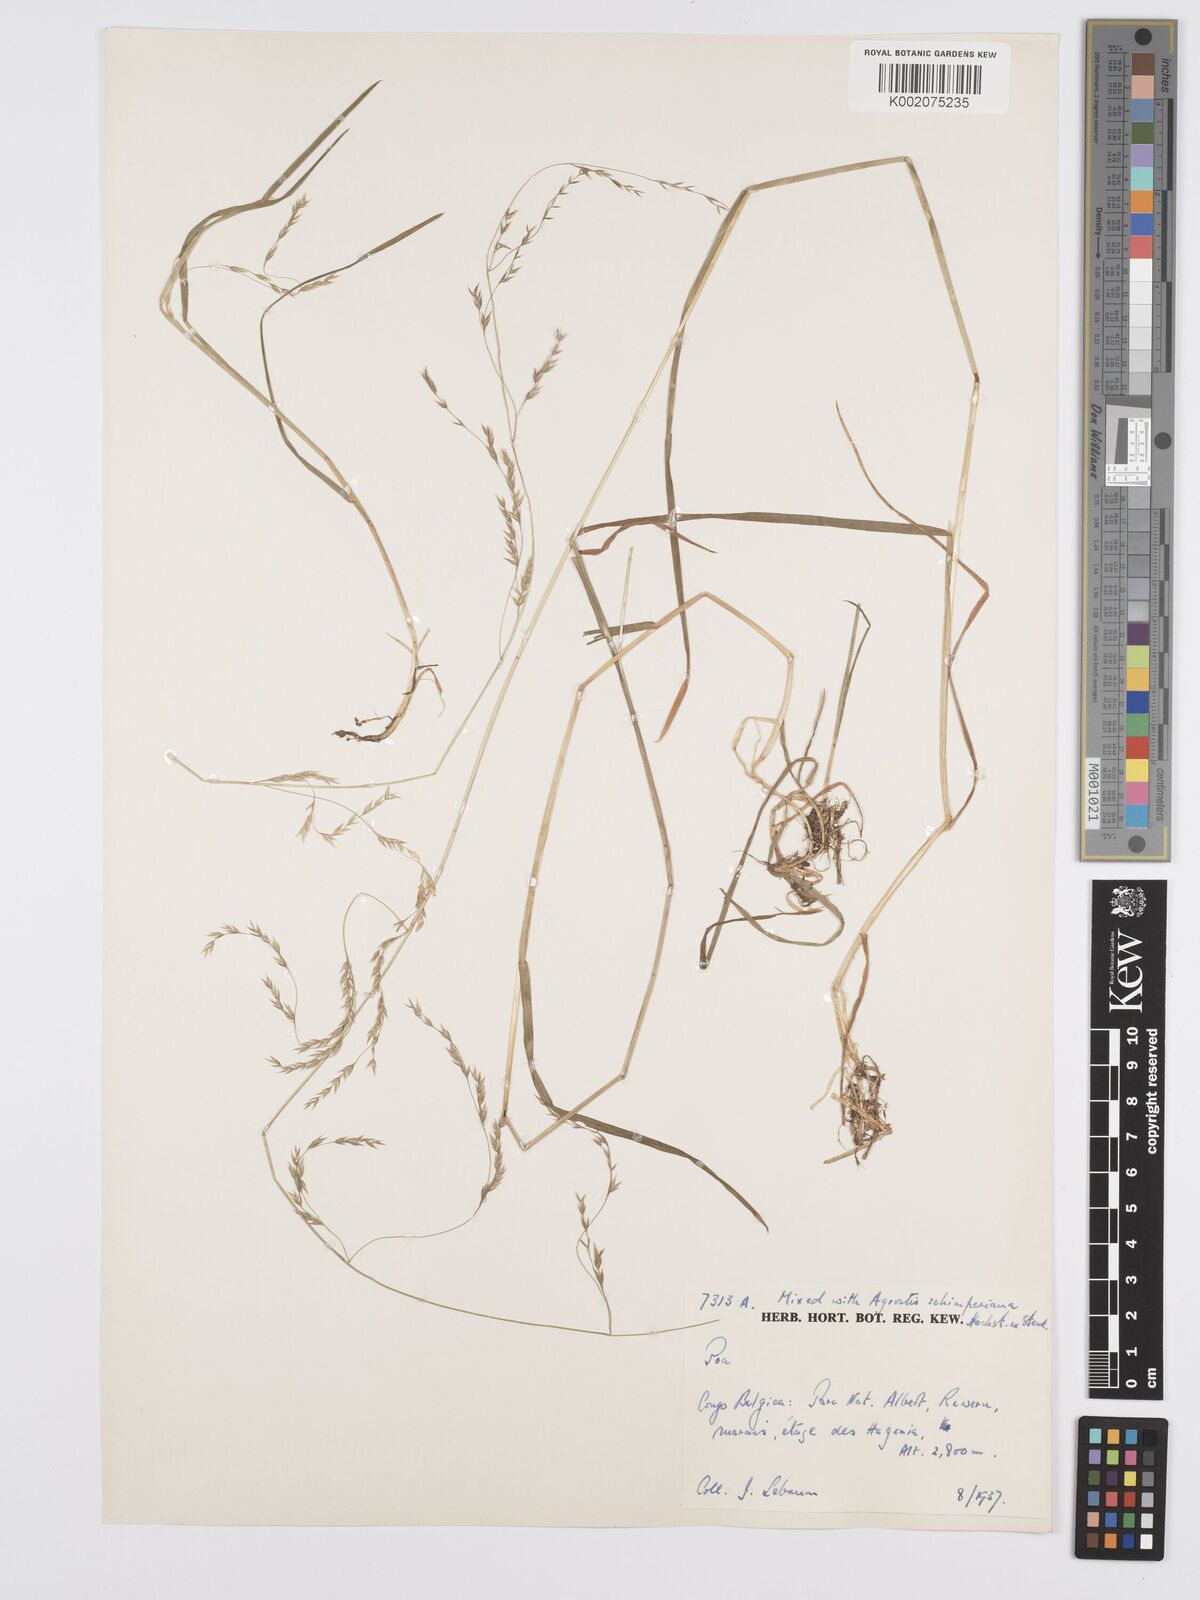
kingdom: Plantae
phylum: Tracheophyta
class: Liliopsida
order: Poales
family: Poaceae
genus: Poa
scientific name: Poa schimperiana
